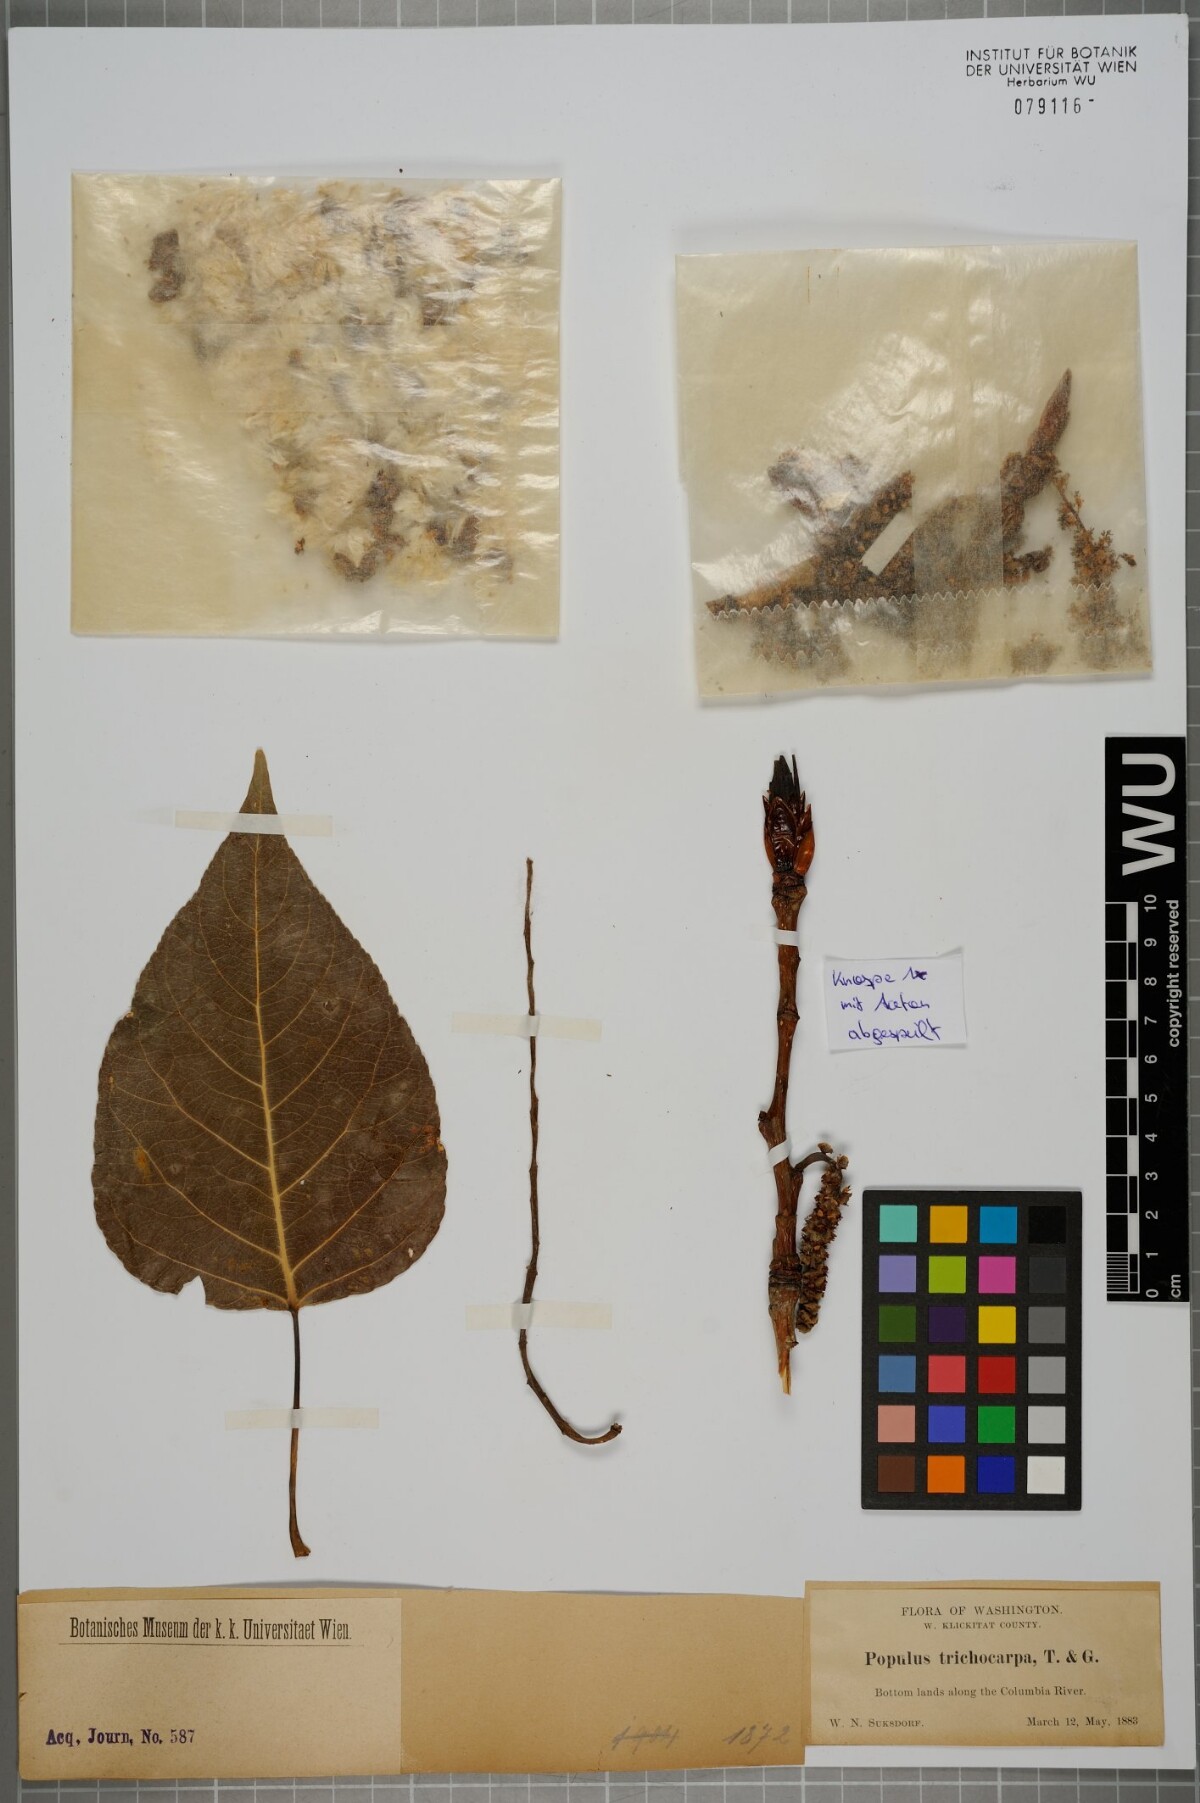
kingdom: Plantae
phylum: Tracheophyta
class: Magnoliopsida
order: Malpighiales
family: Salicaceae
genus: Populus
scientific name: Populus trichocarpa
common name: Black cottonwood
